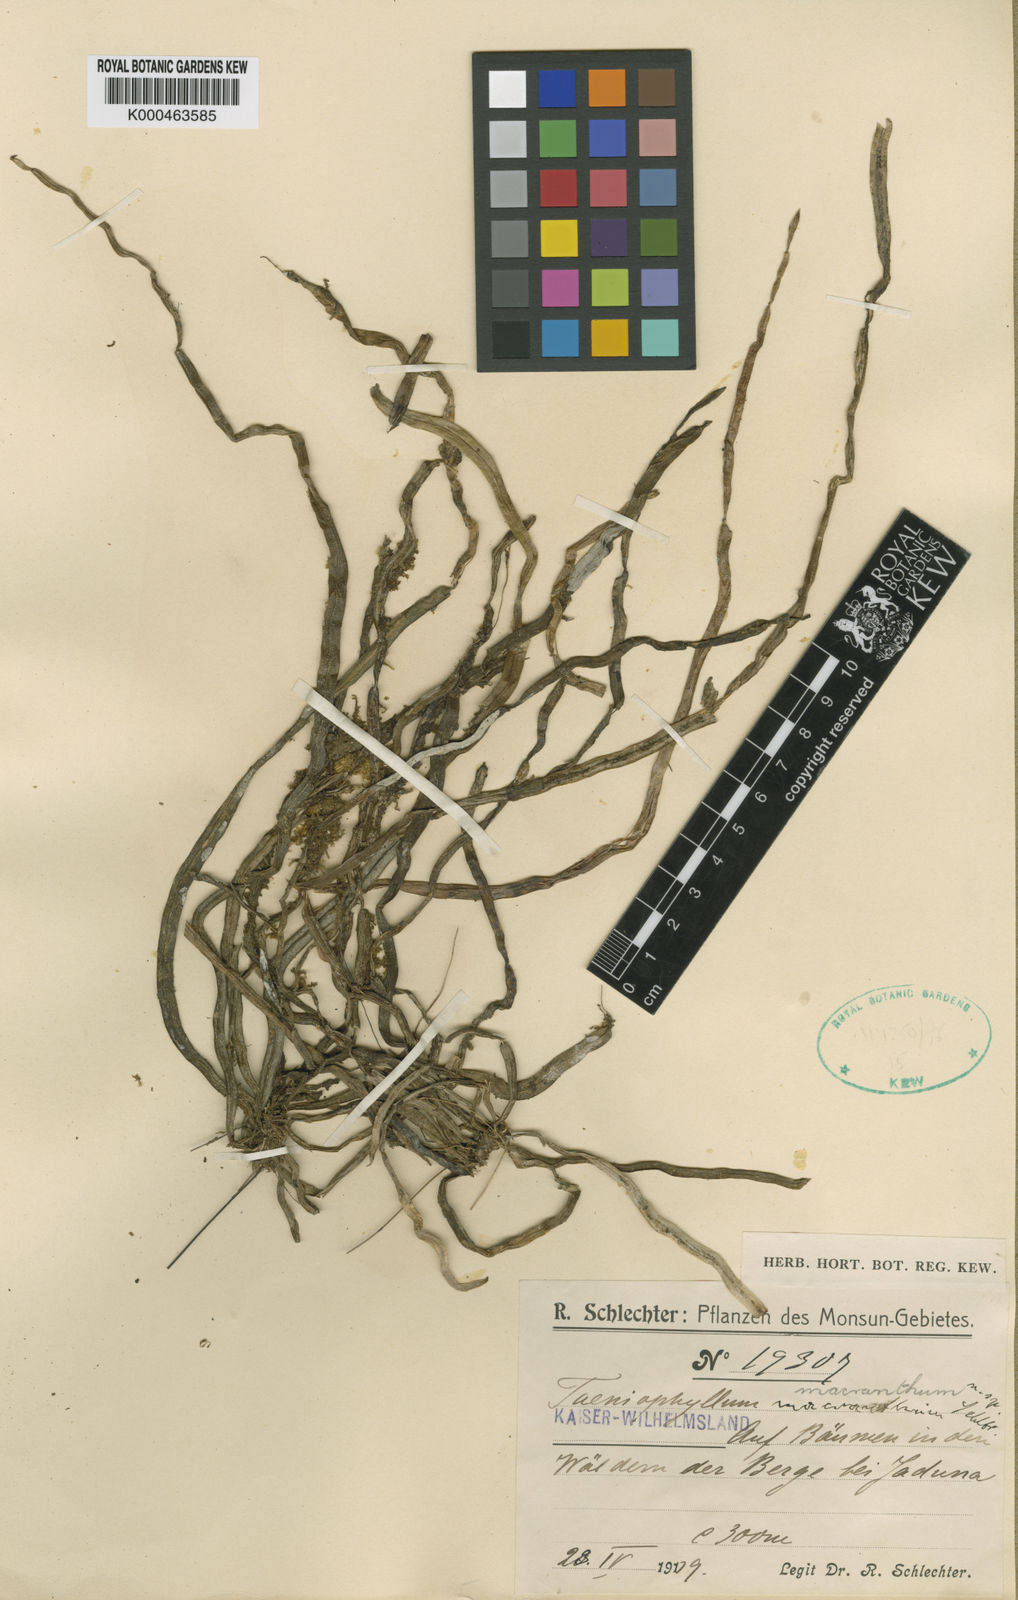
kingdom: Plantae
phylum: Tracheophyta
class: Liliopsida
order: Asparagales
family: Orchidaceae
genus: Taeniophyllum
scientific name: Taeniophyllum macranthum
